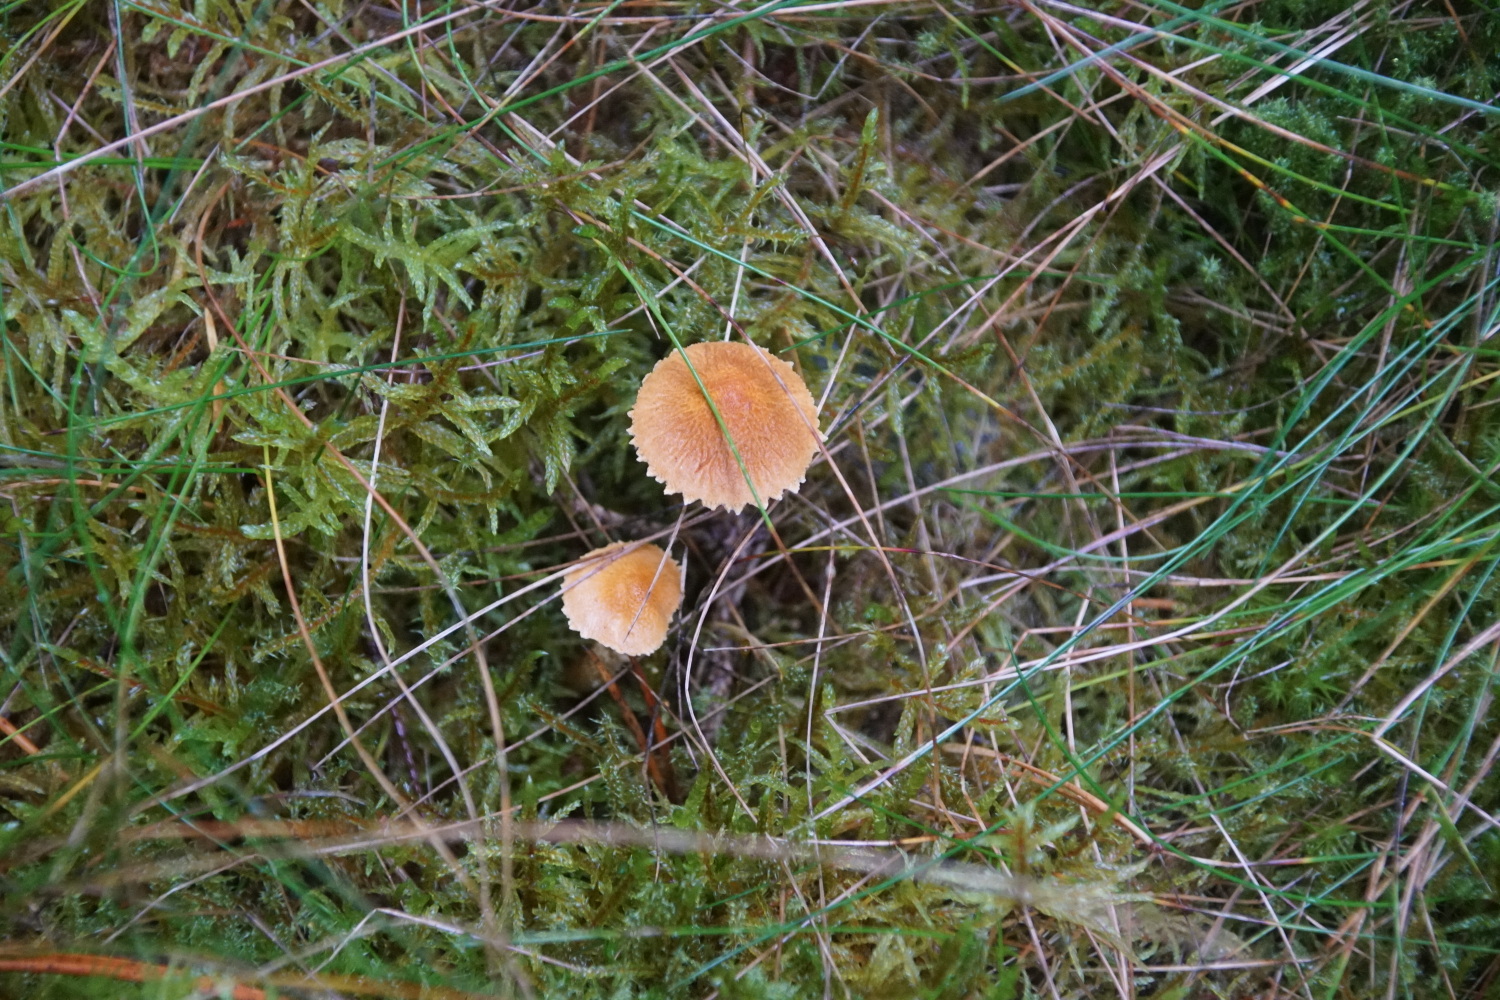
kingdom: Fungi
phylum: Basidiomycota
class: Agaricomycetes
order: Agaricales
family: Tricholomataceae
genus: Cystoderma
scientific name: Cystoderma jasonis
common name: gulkødet grynhat
